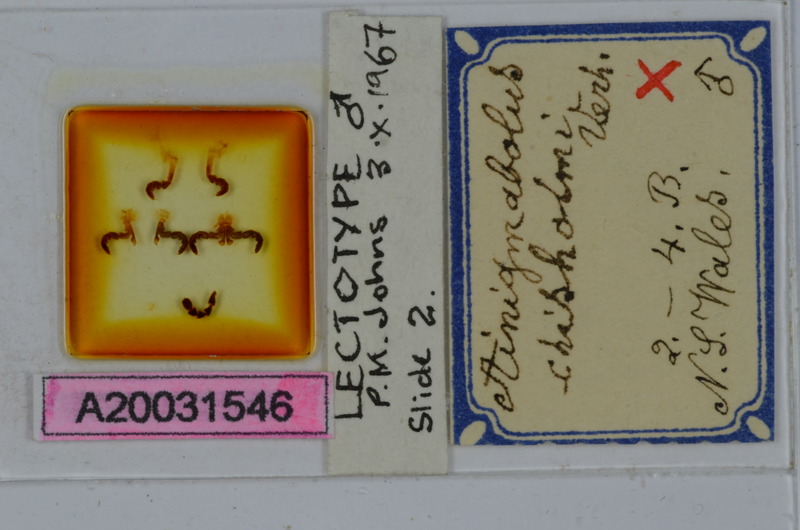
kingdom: Animalia
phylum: Arthropoda
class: Diplopoda
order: Spirobolida
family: Pachybolidae
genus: Ainigmabolus
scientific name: Ainigmabolus chisholmi
